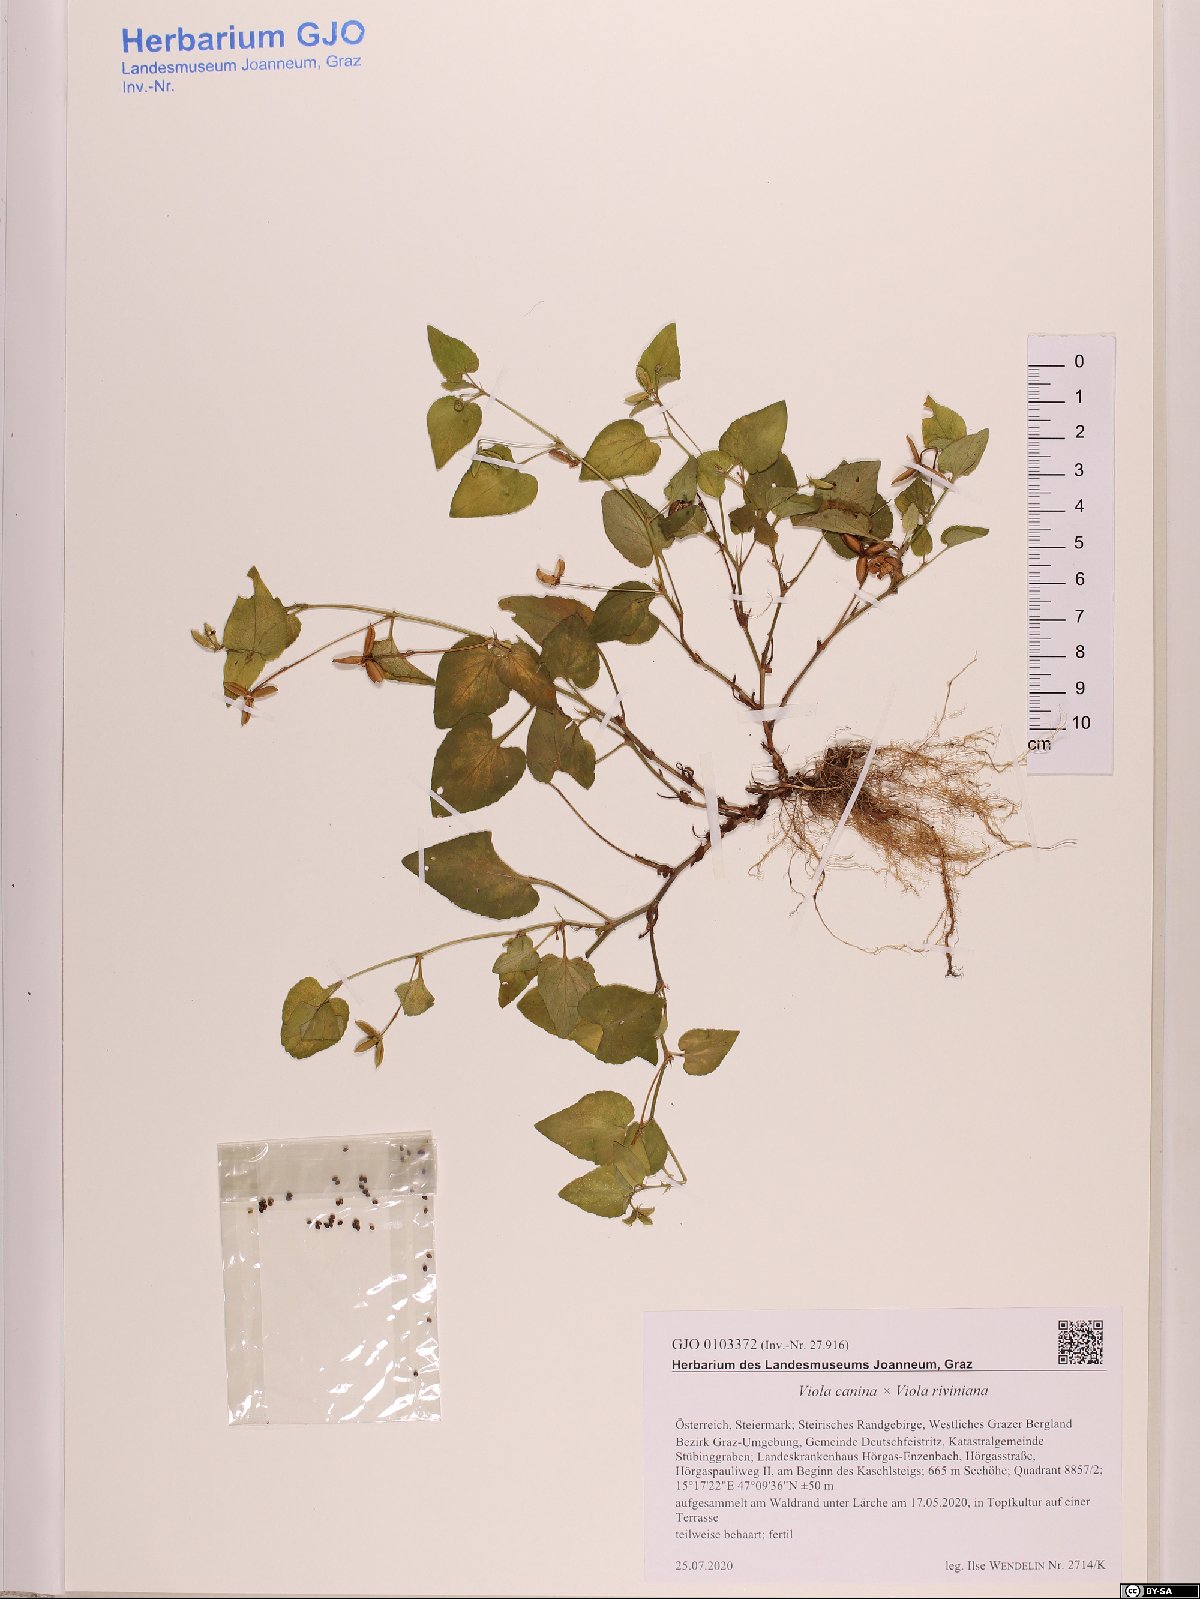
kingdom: Plantae
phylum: Tracheophyta
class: Magnoliopsida
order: Malpighiales
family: Violaceae
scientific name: Violaceae
